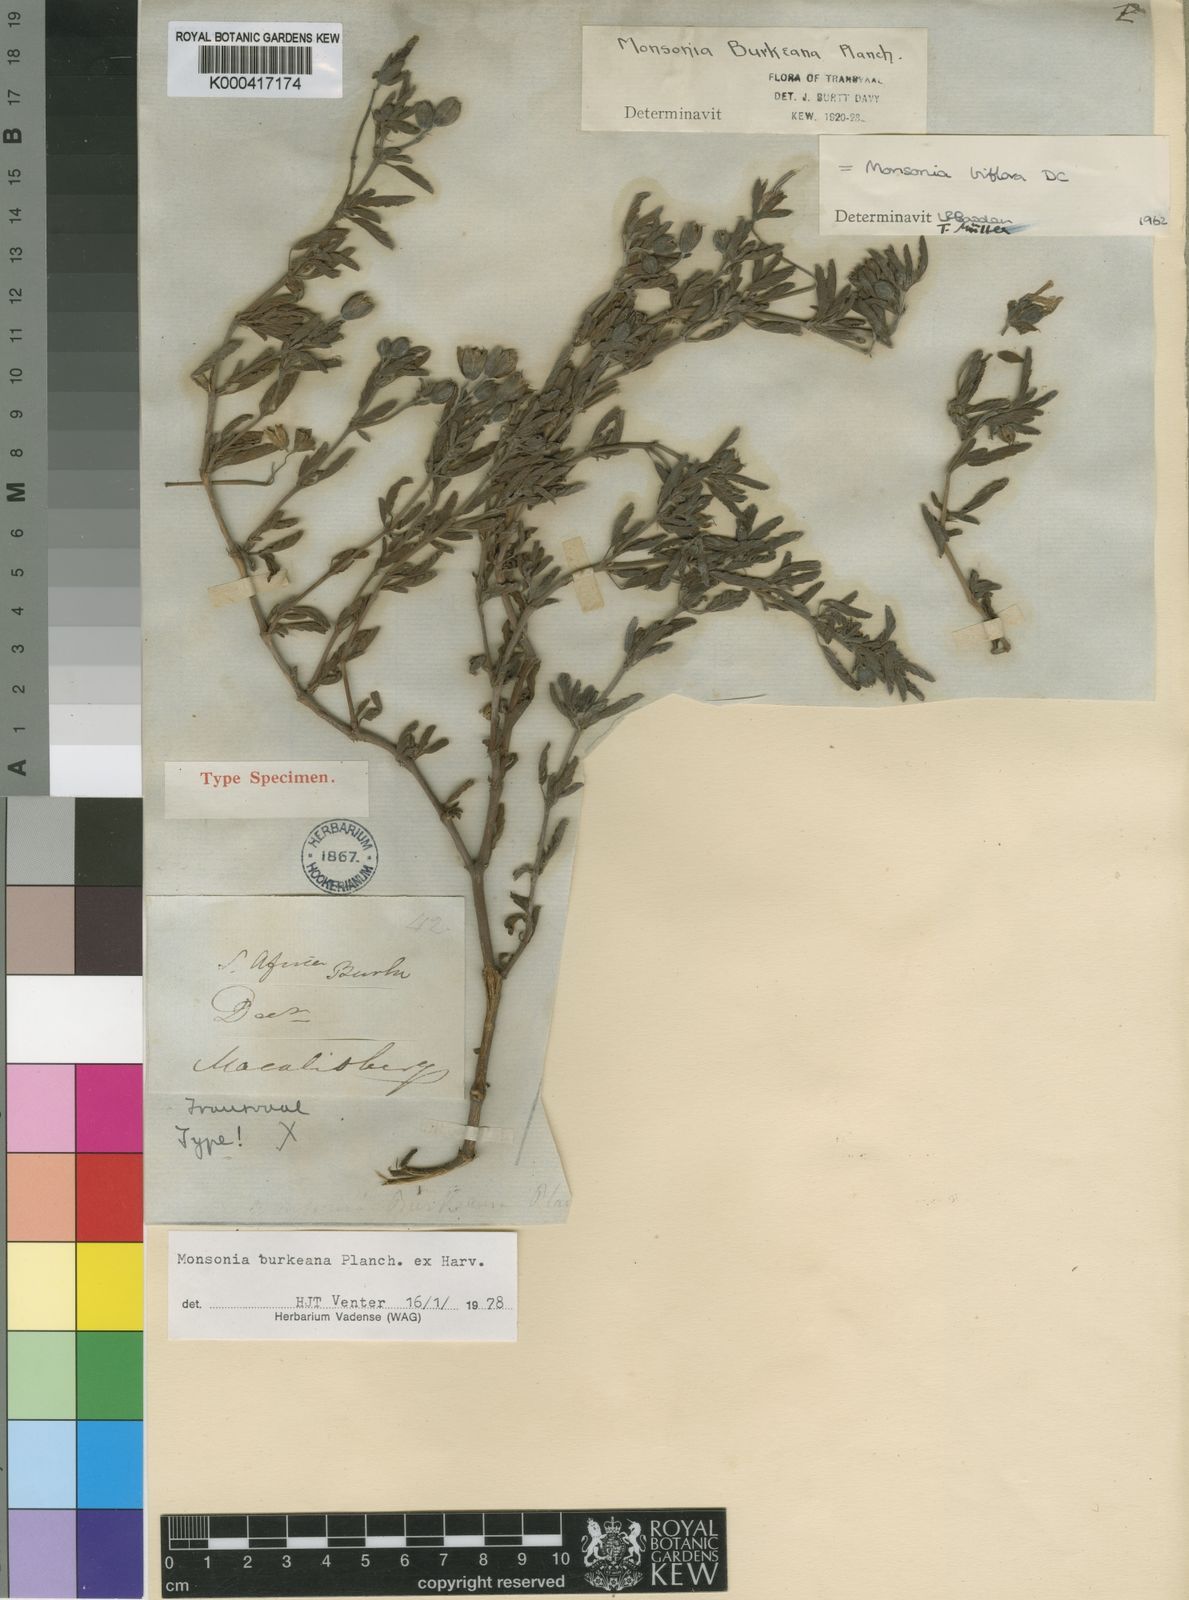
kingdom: Plantae
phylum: Tracheophyta
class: Magnoliopsida
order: Geraniales
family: Geraniaceae
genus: Monsonia
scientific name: Monsonia biflora
